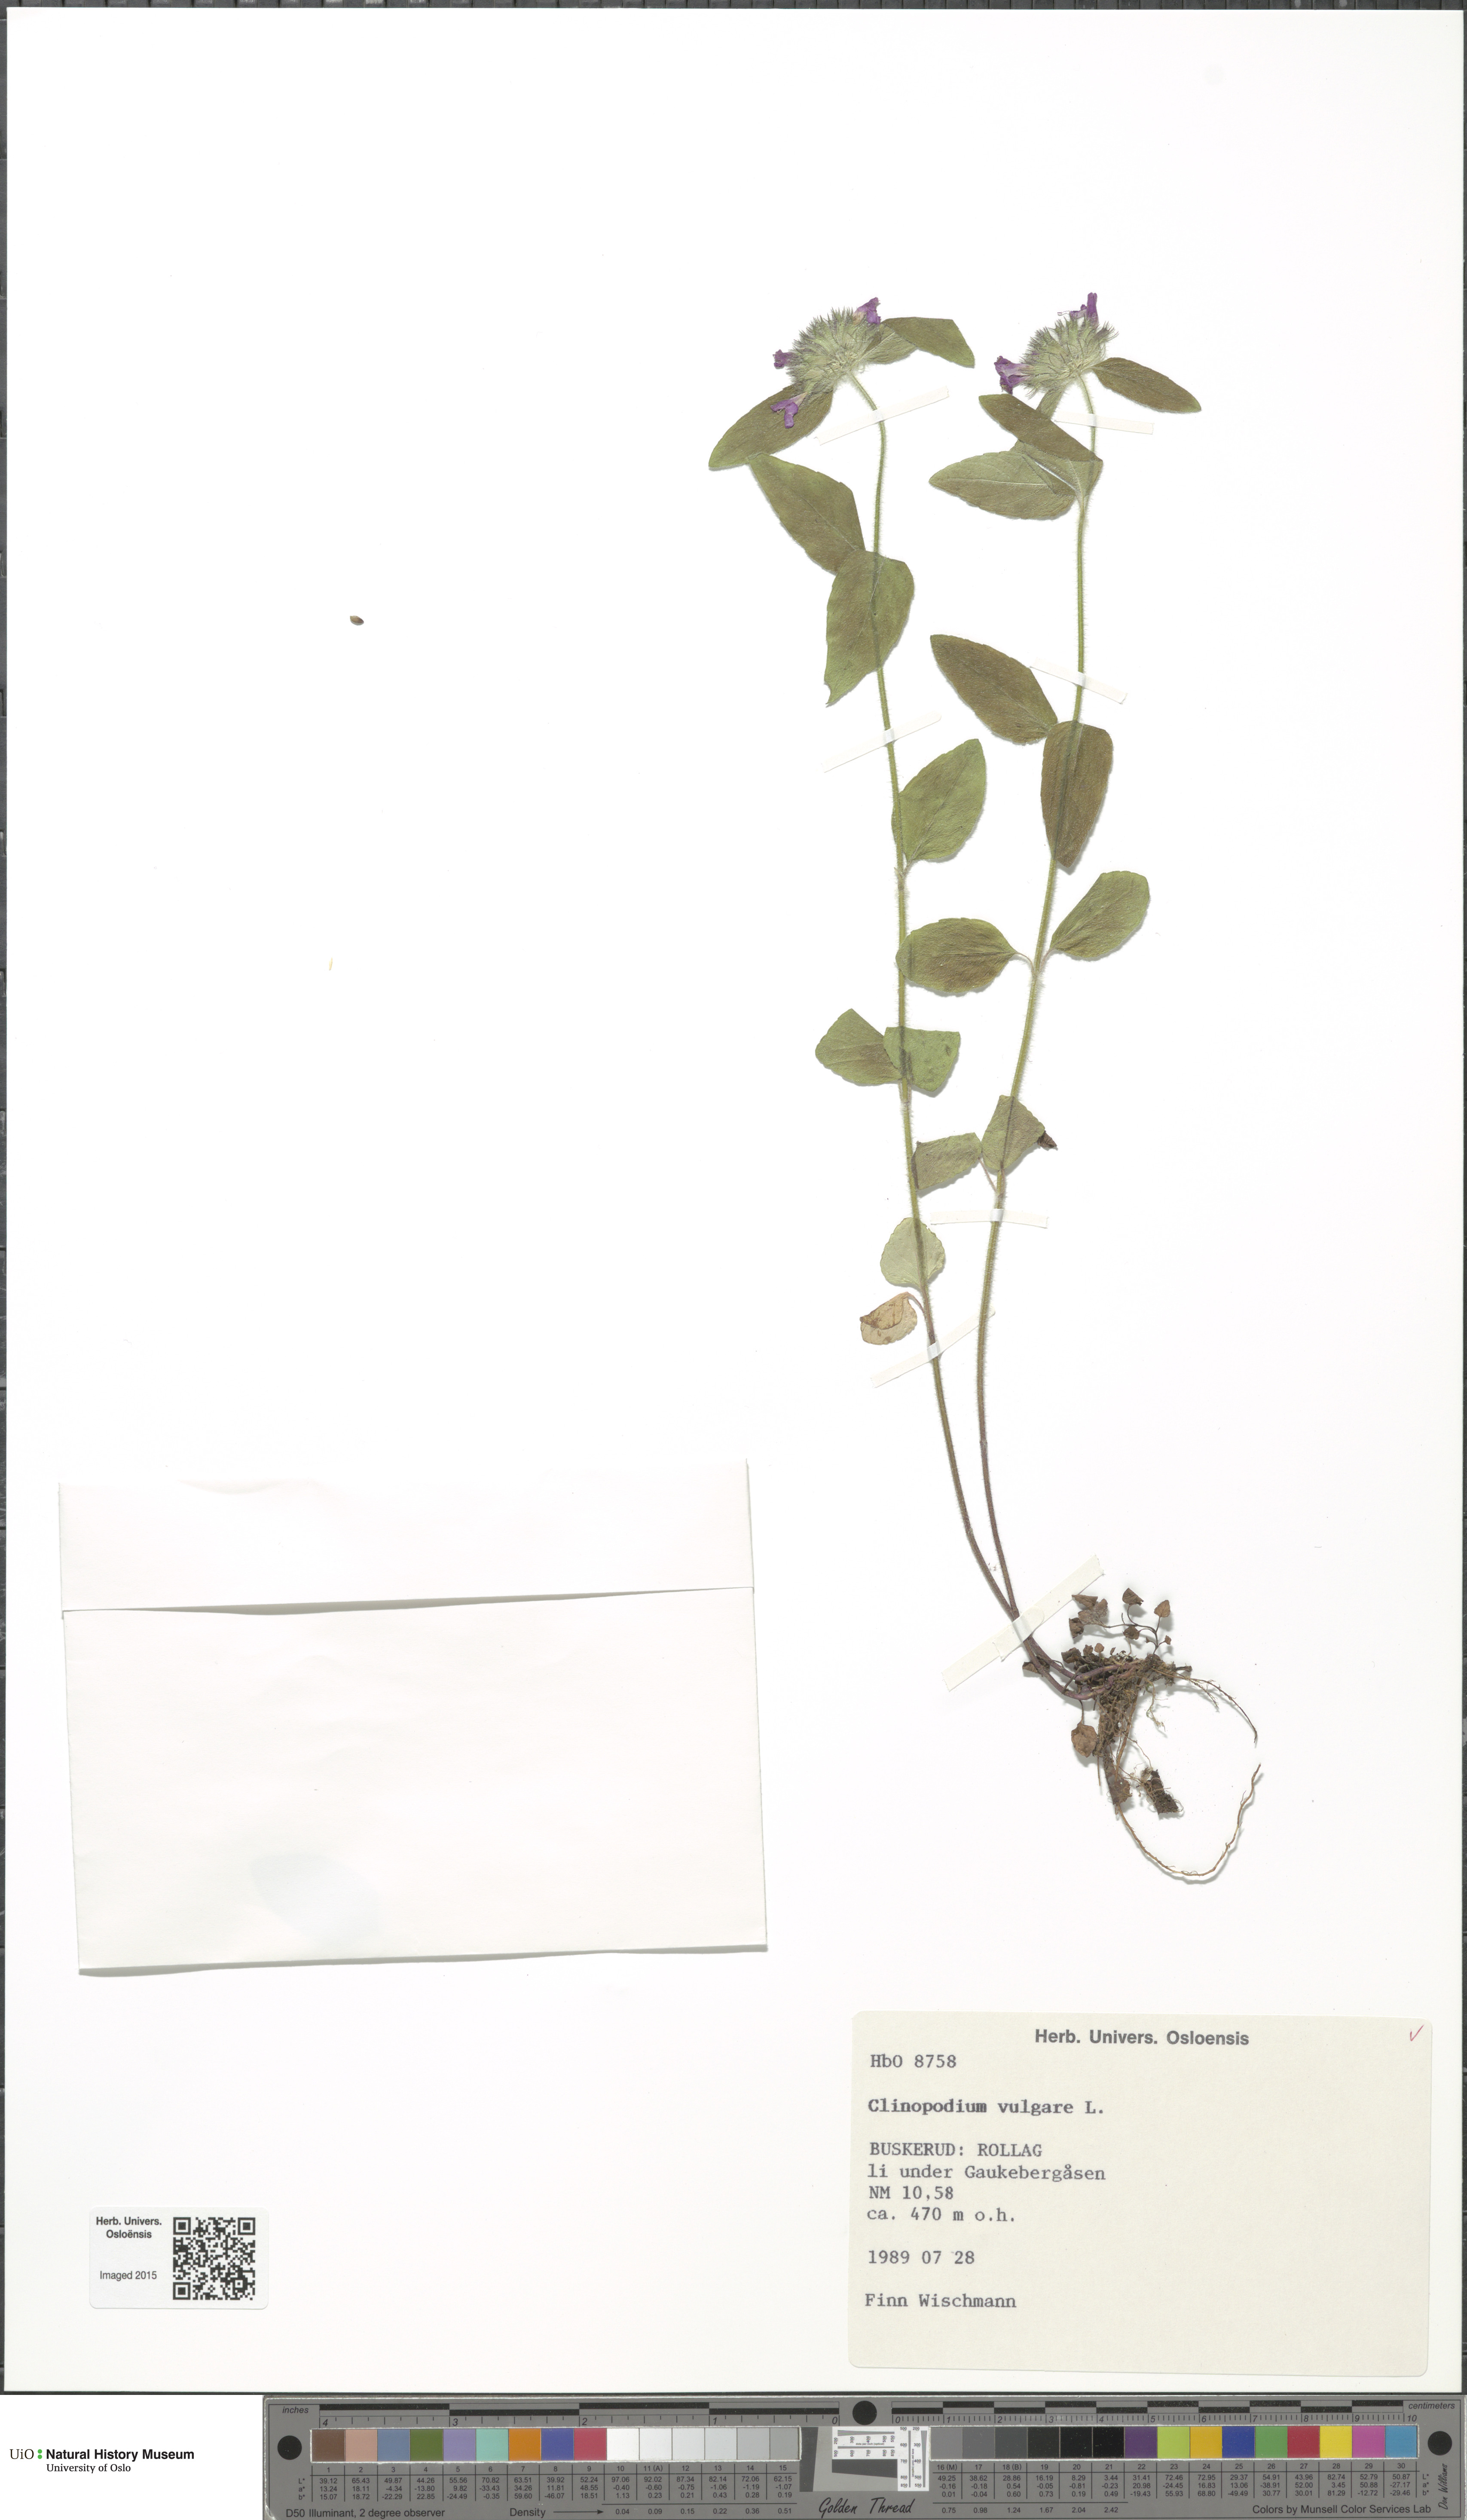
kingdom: Plantae
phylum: Tracheophyta
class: Magnoliopsida
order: Lamiales
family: Lamiaceae
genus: Clinopodium
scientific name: Clinopodium vulgare
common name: Wild basil
